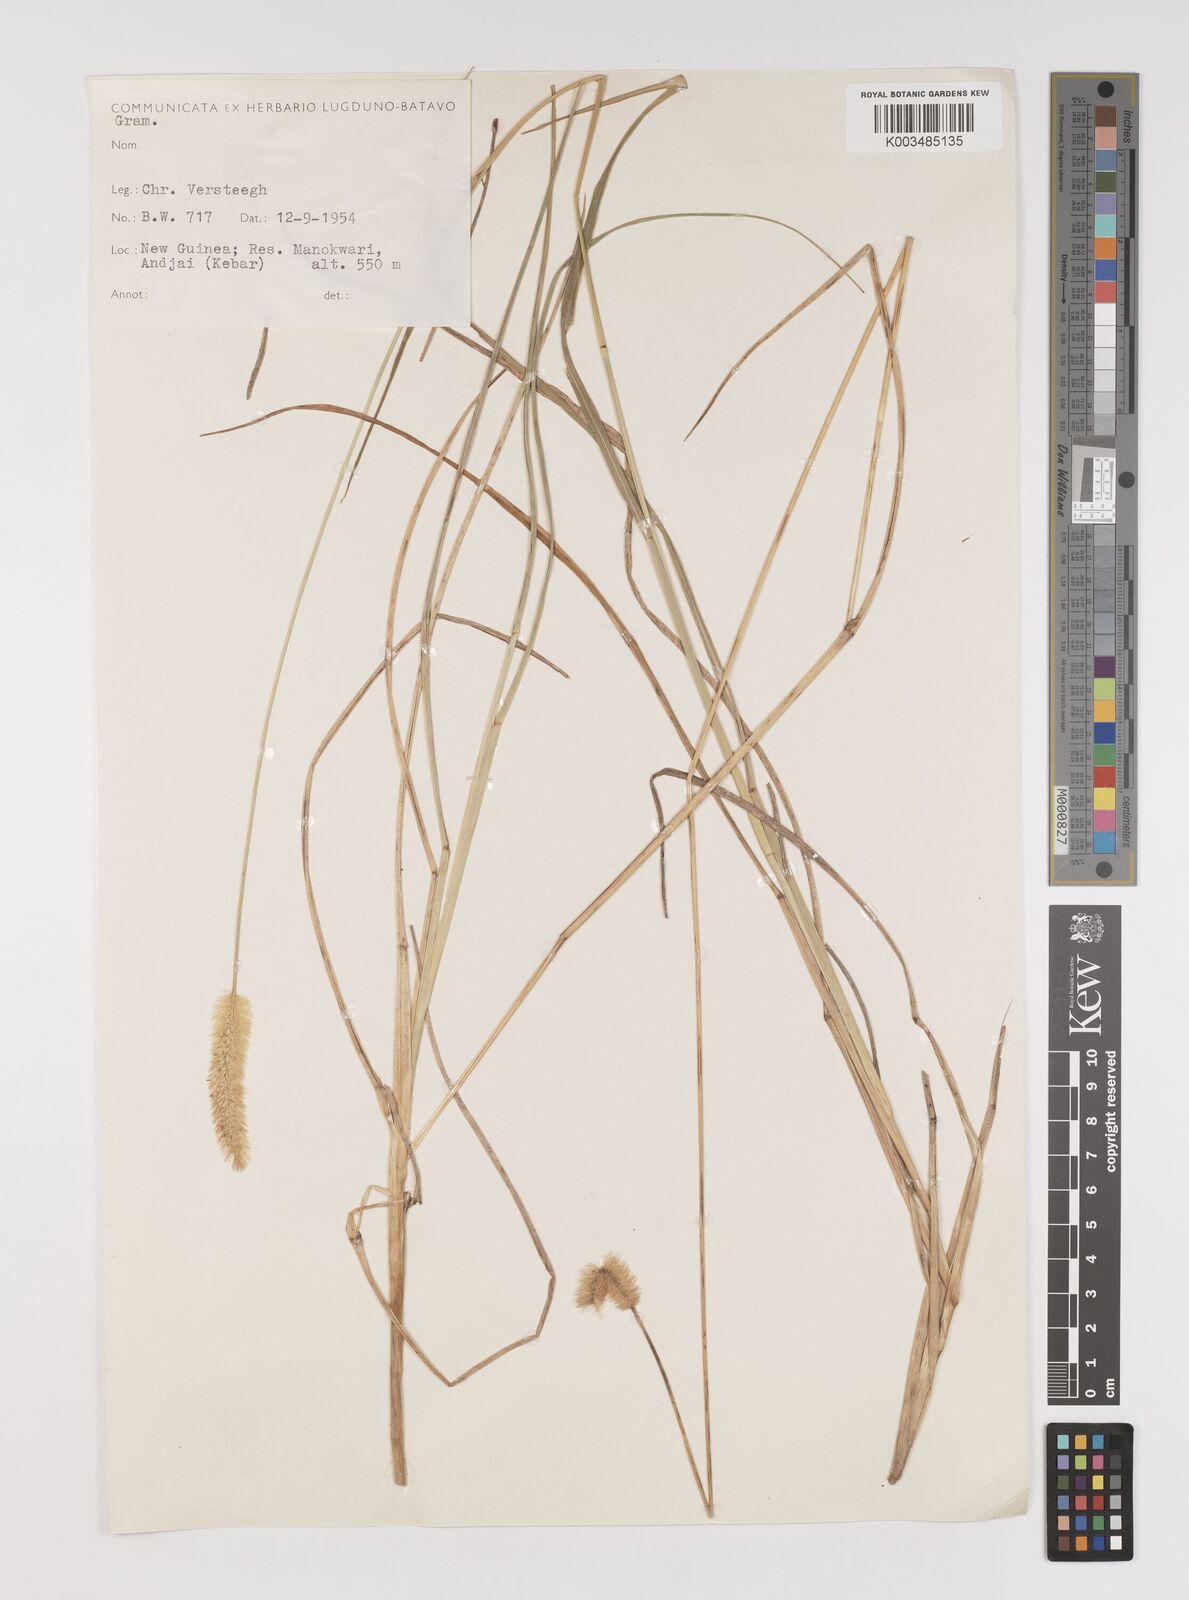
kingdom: Plantae
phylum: Tracheophyta
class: Liliopsida
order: Poales
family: Poaceae
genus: Setaria
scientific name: Setaria
